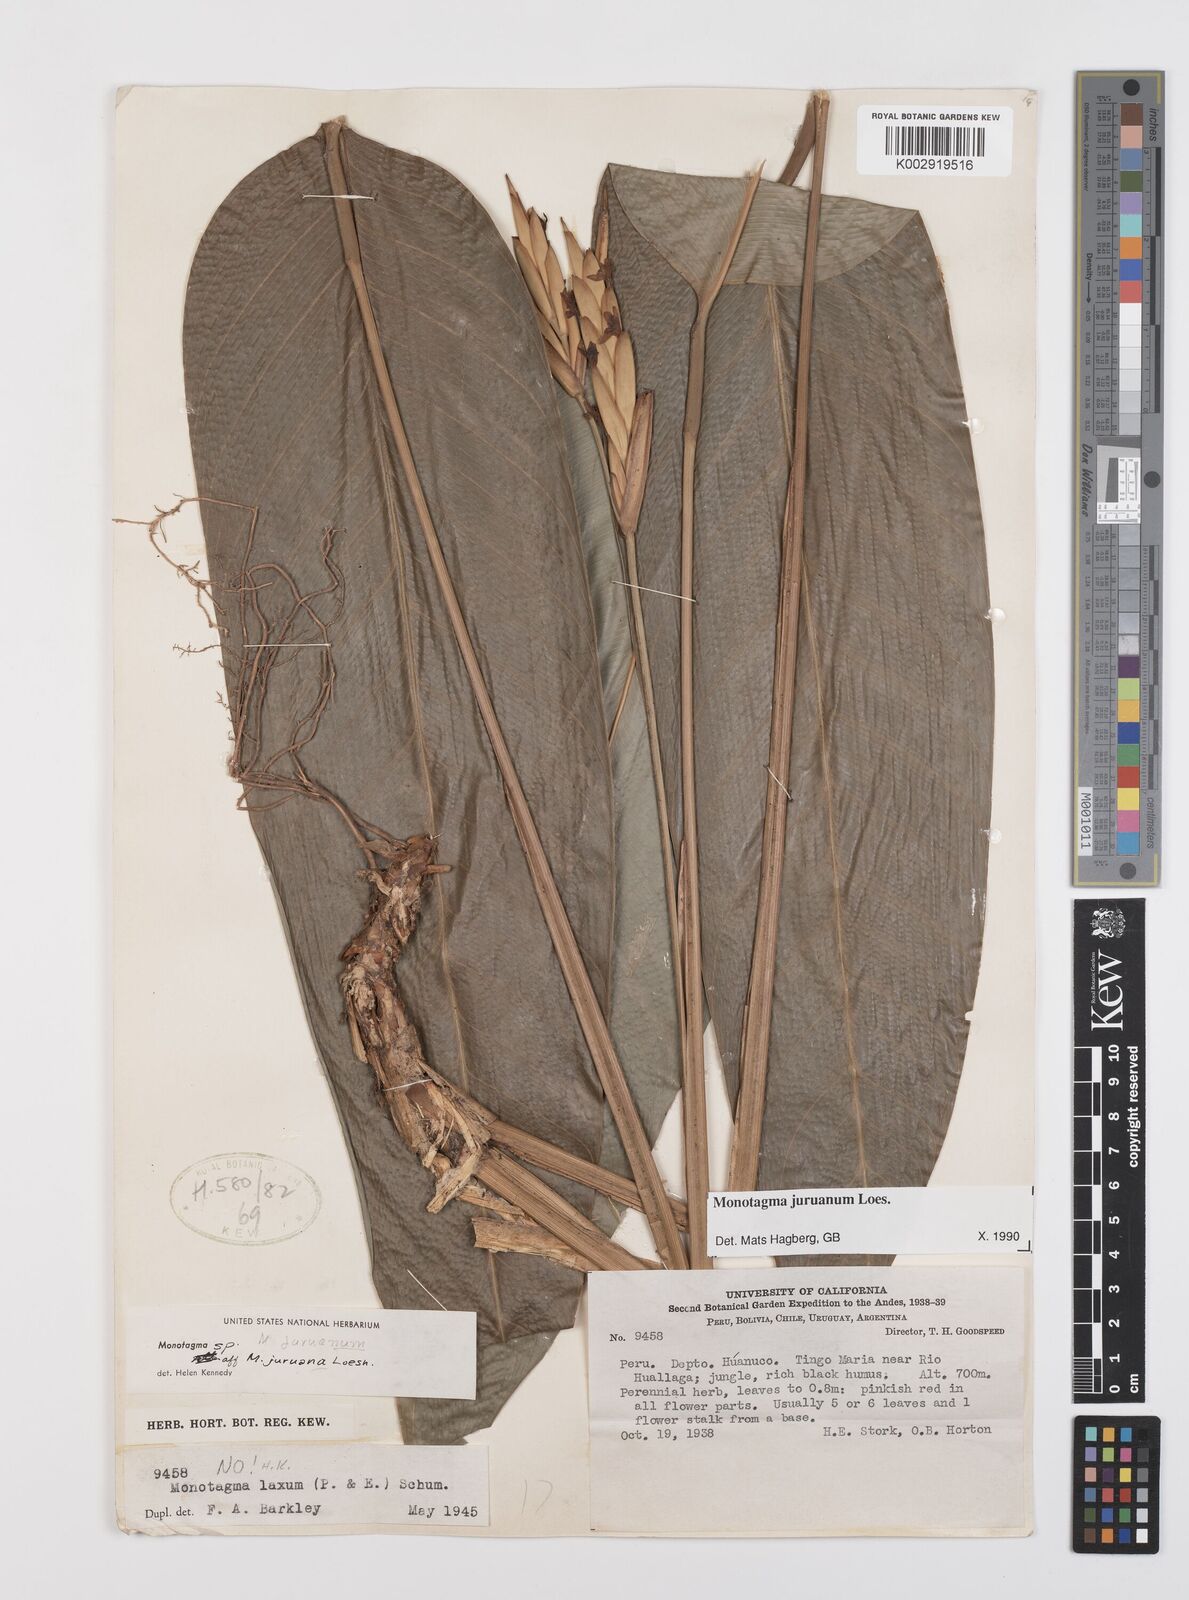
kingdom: Plantae
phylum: Tracheophyta
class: Liliopsida
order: Zingiberales
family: Marantaceae
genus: Monotagma
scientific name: Monotagma juruanum
